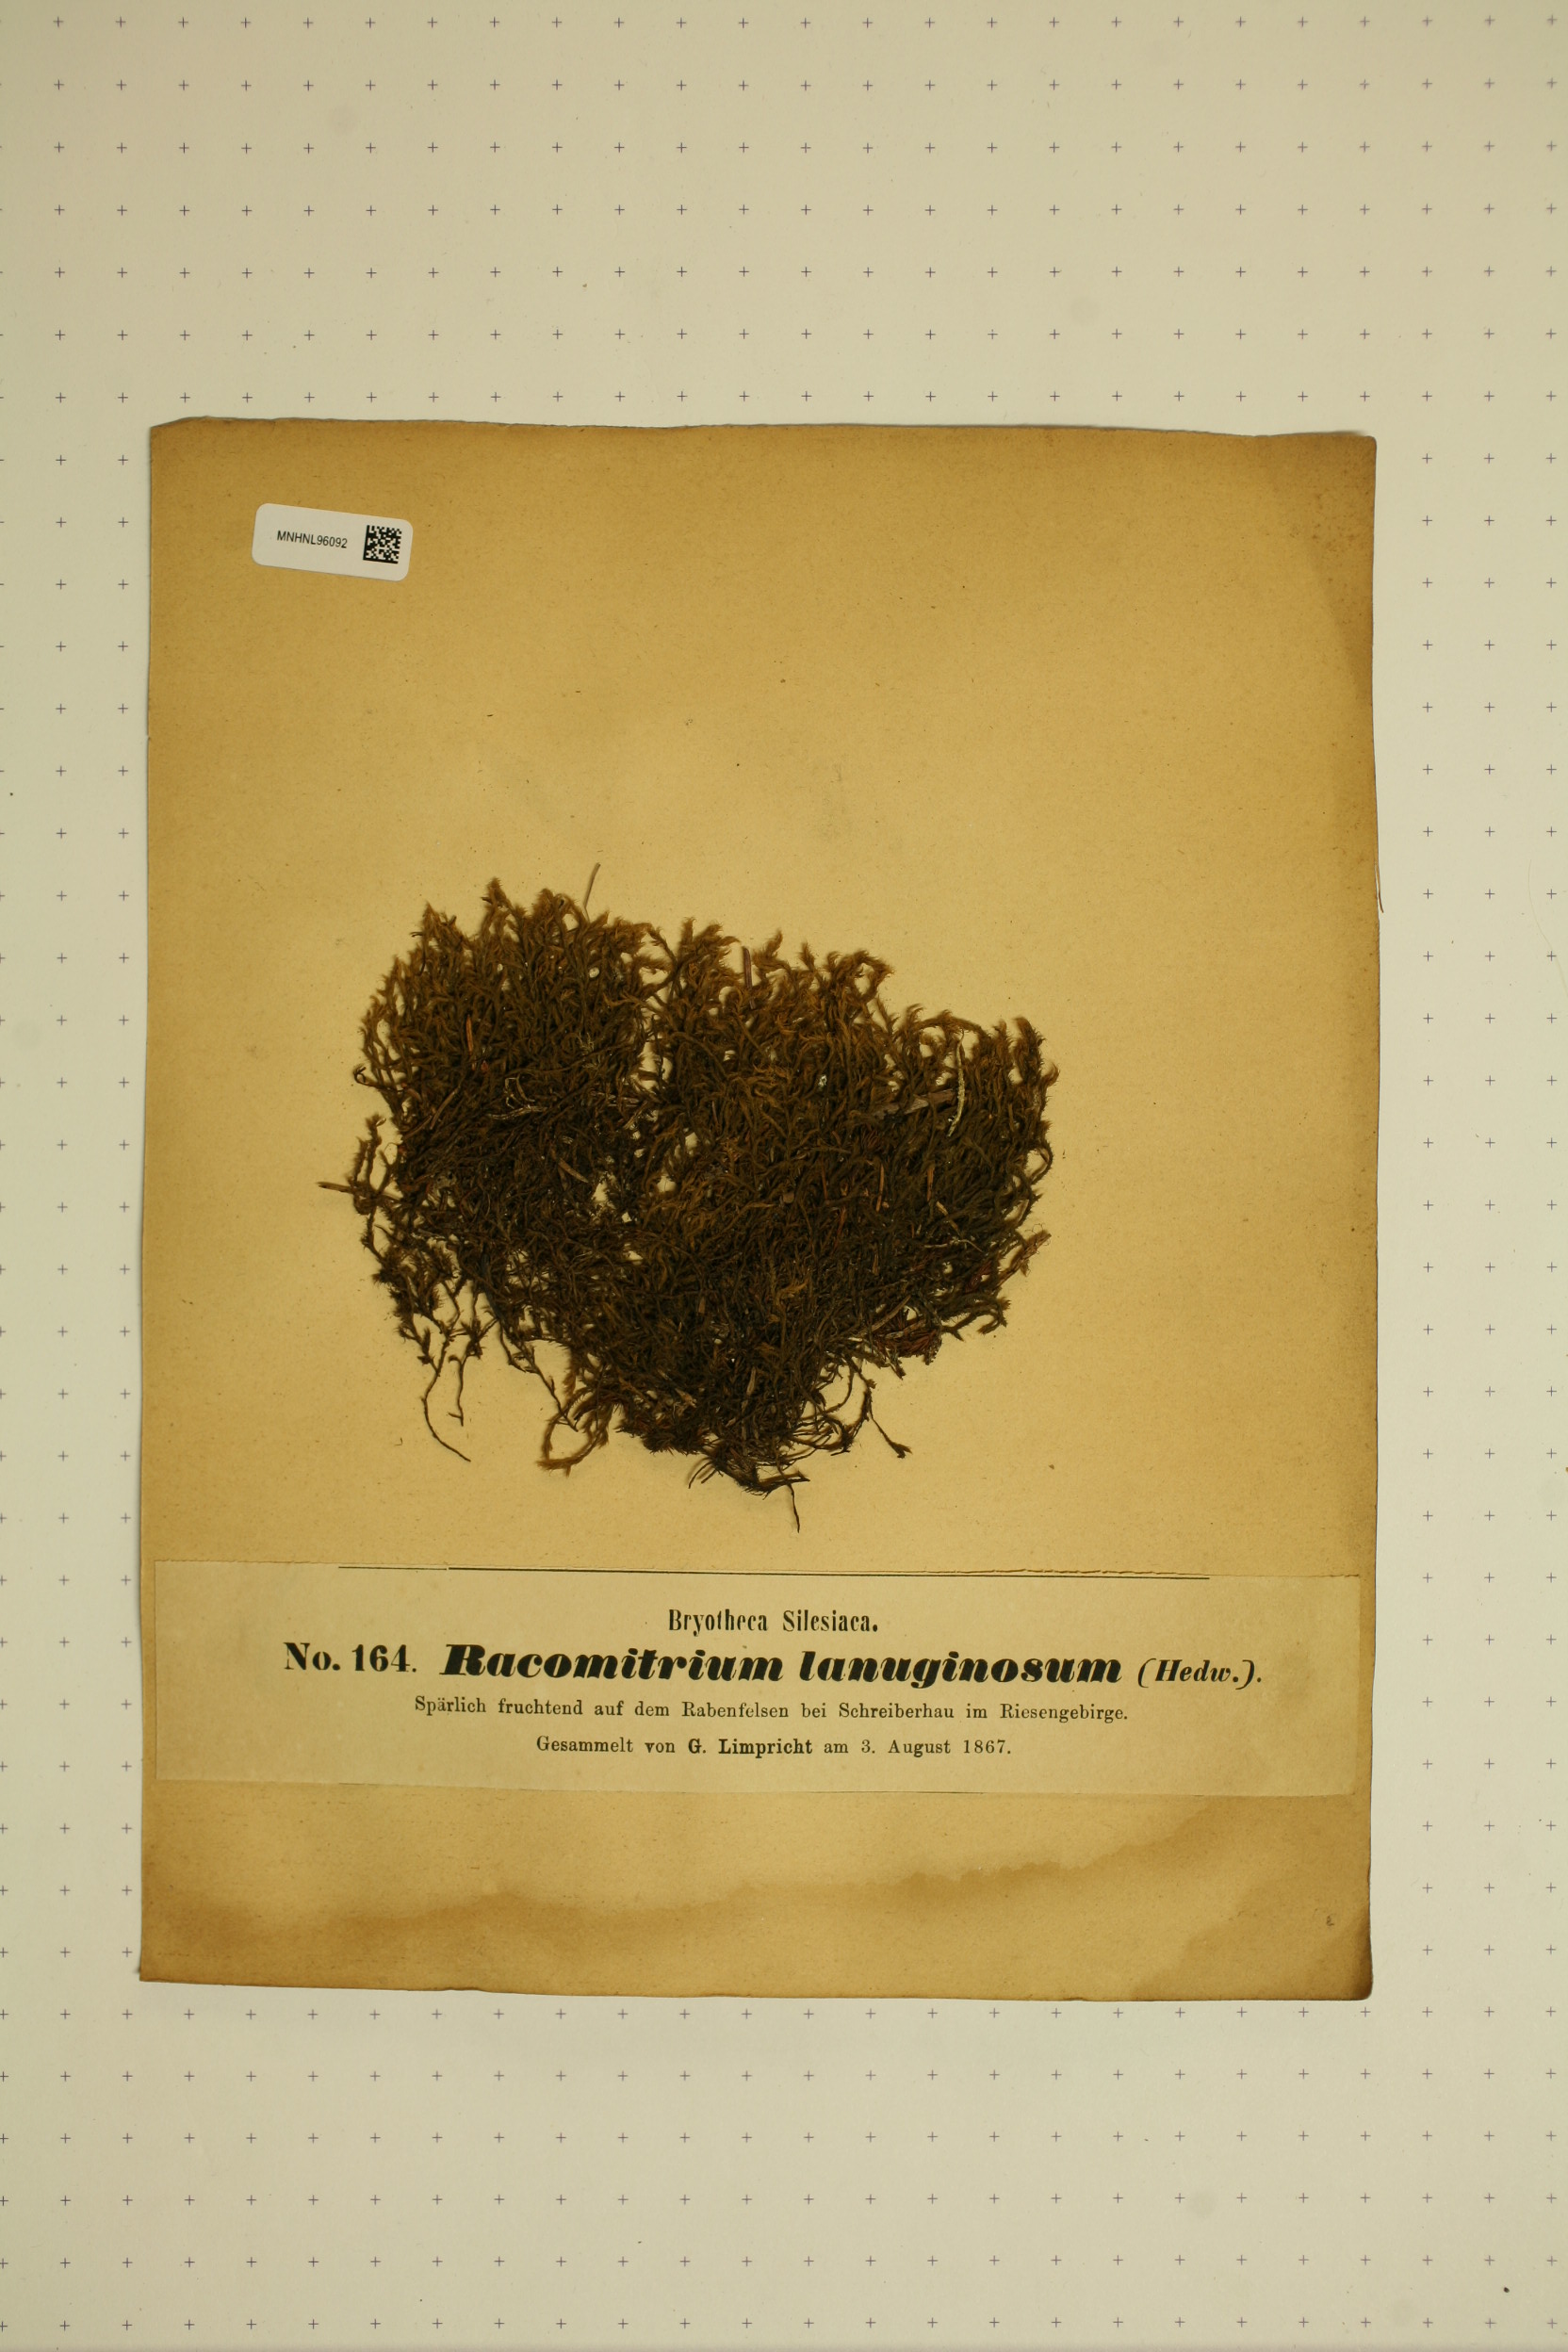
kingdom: Plantae
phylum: Bryophyta
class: Bryopsida
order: Grimmiales
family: Grimmiaceae
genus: Racomitrium
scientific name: Racomitrium lanuginosum
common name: Hoary rock moss
